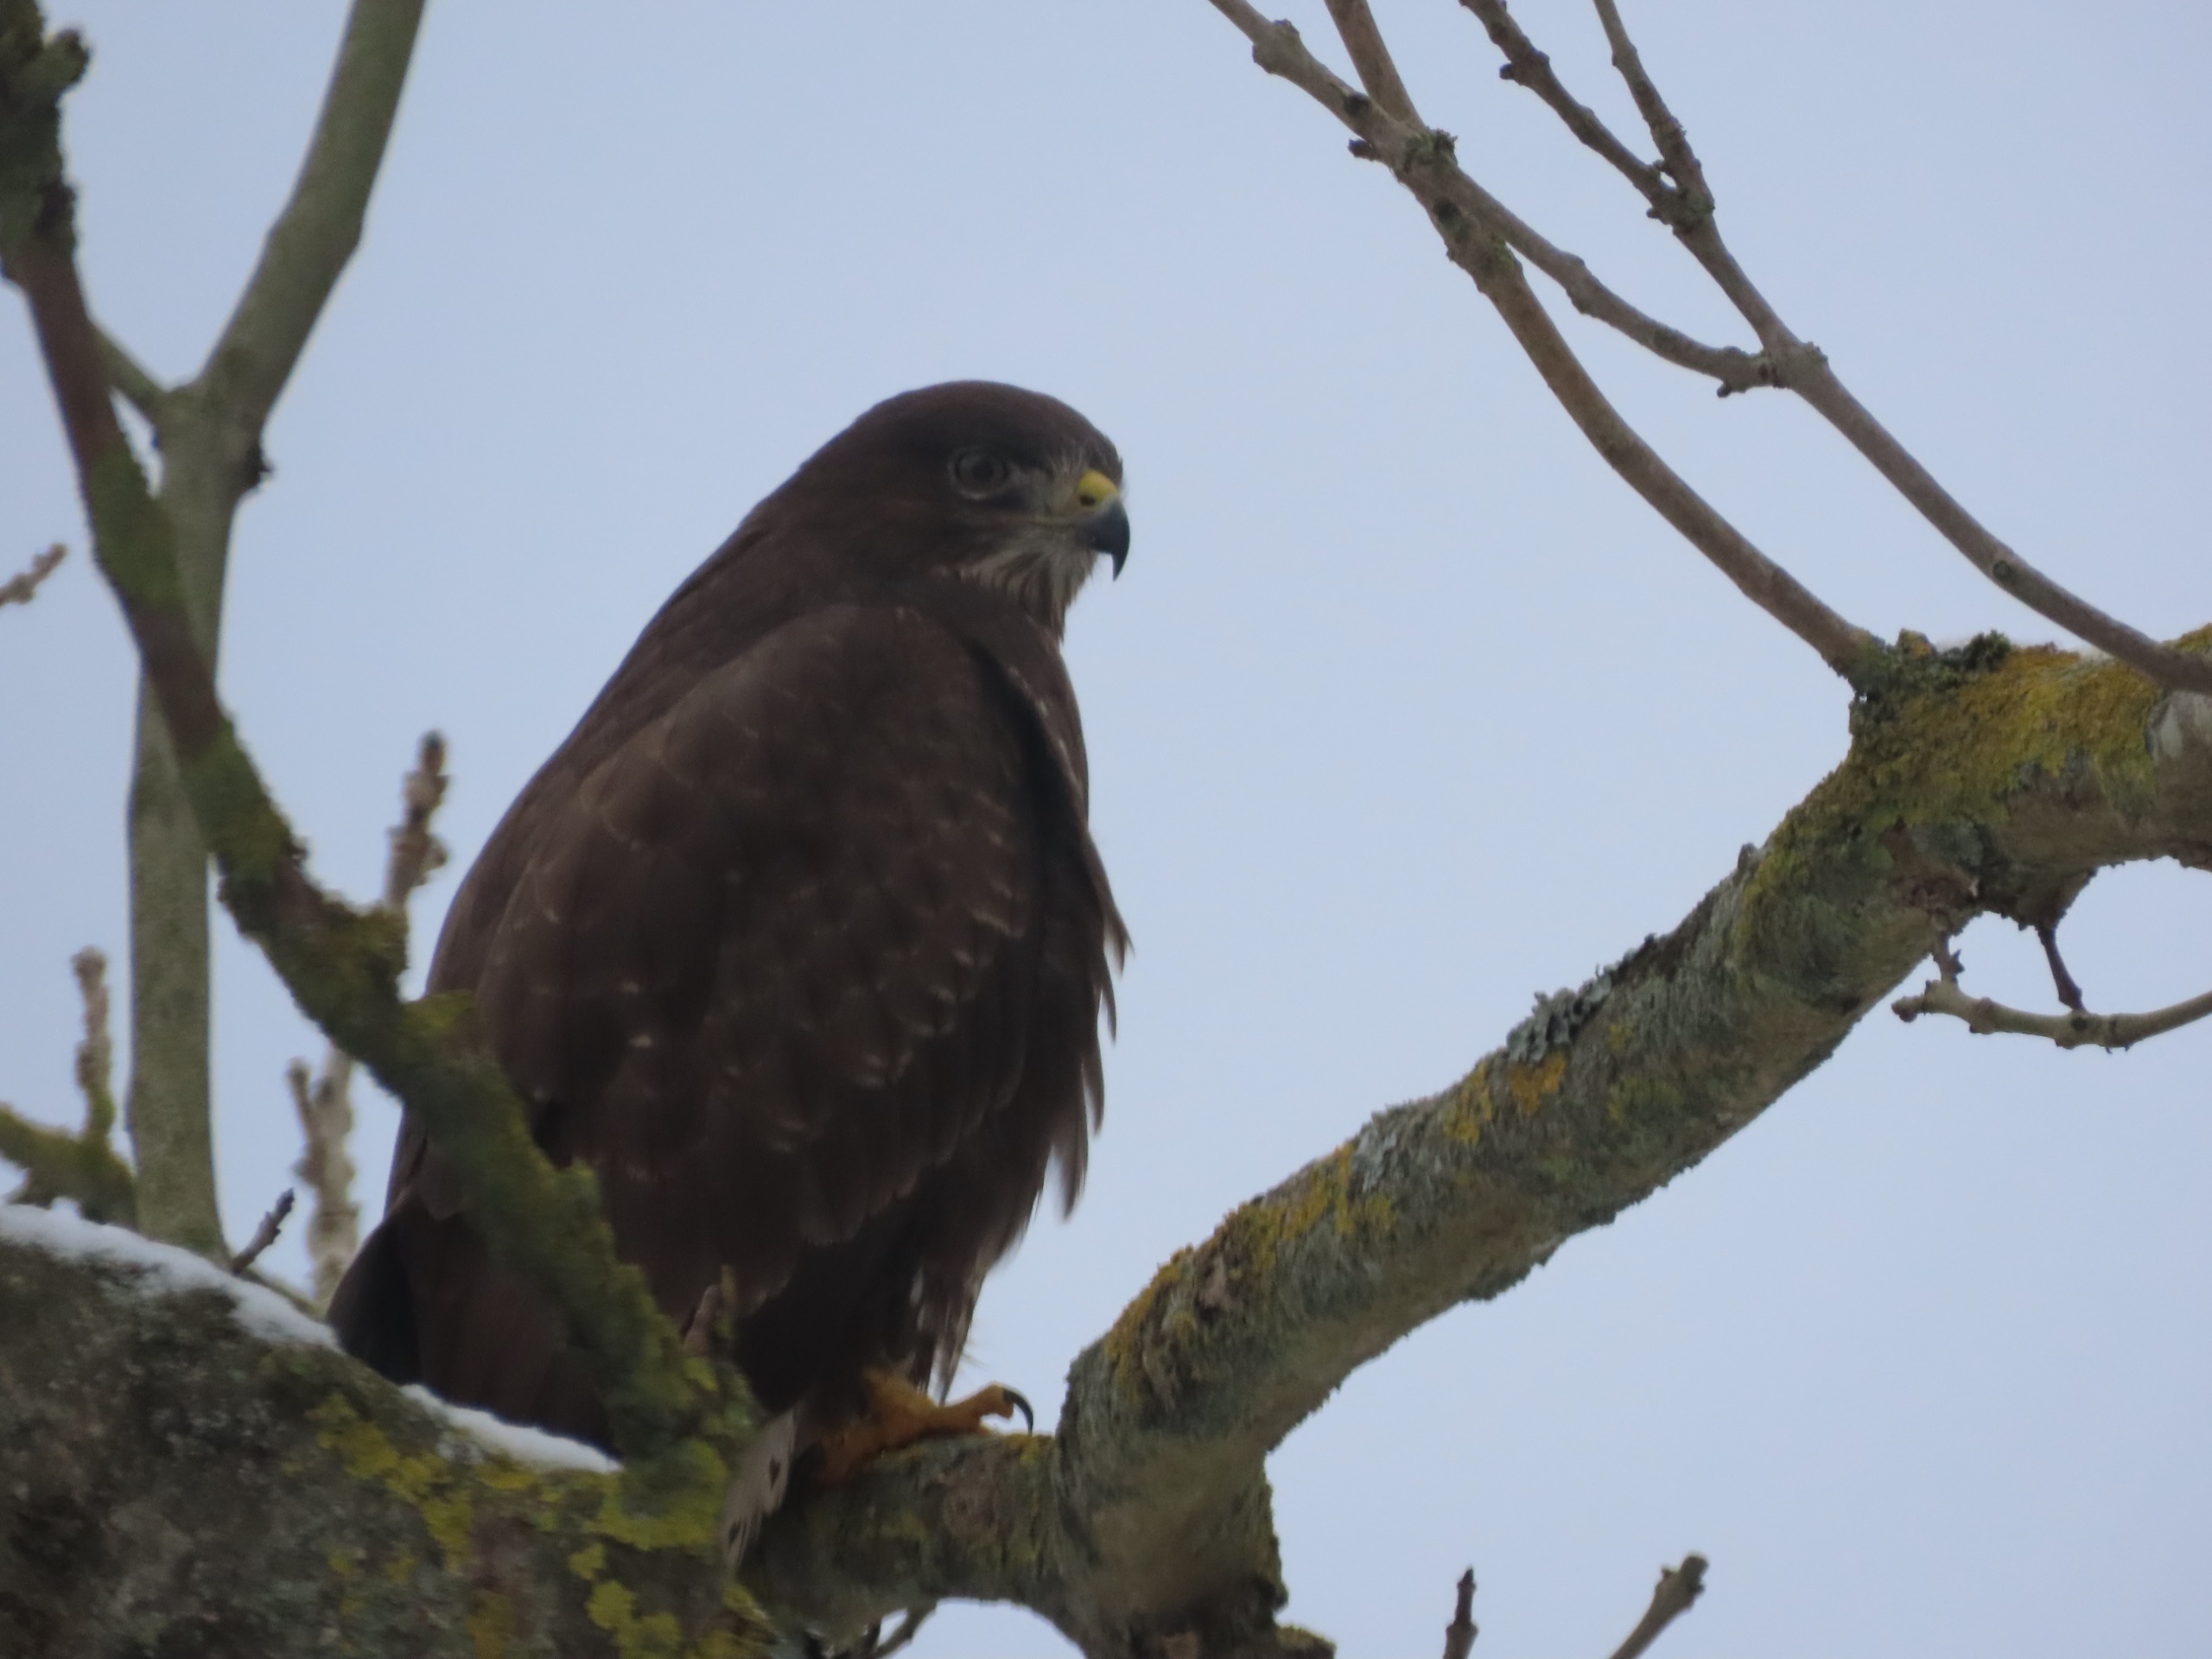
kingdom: Animalia
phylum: Chordata
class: Aves
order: Accipitriformes
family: Accipitridae
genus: Buteo
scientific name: Buteo buteo
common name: Musvåge
